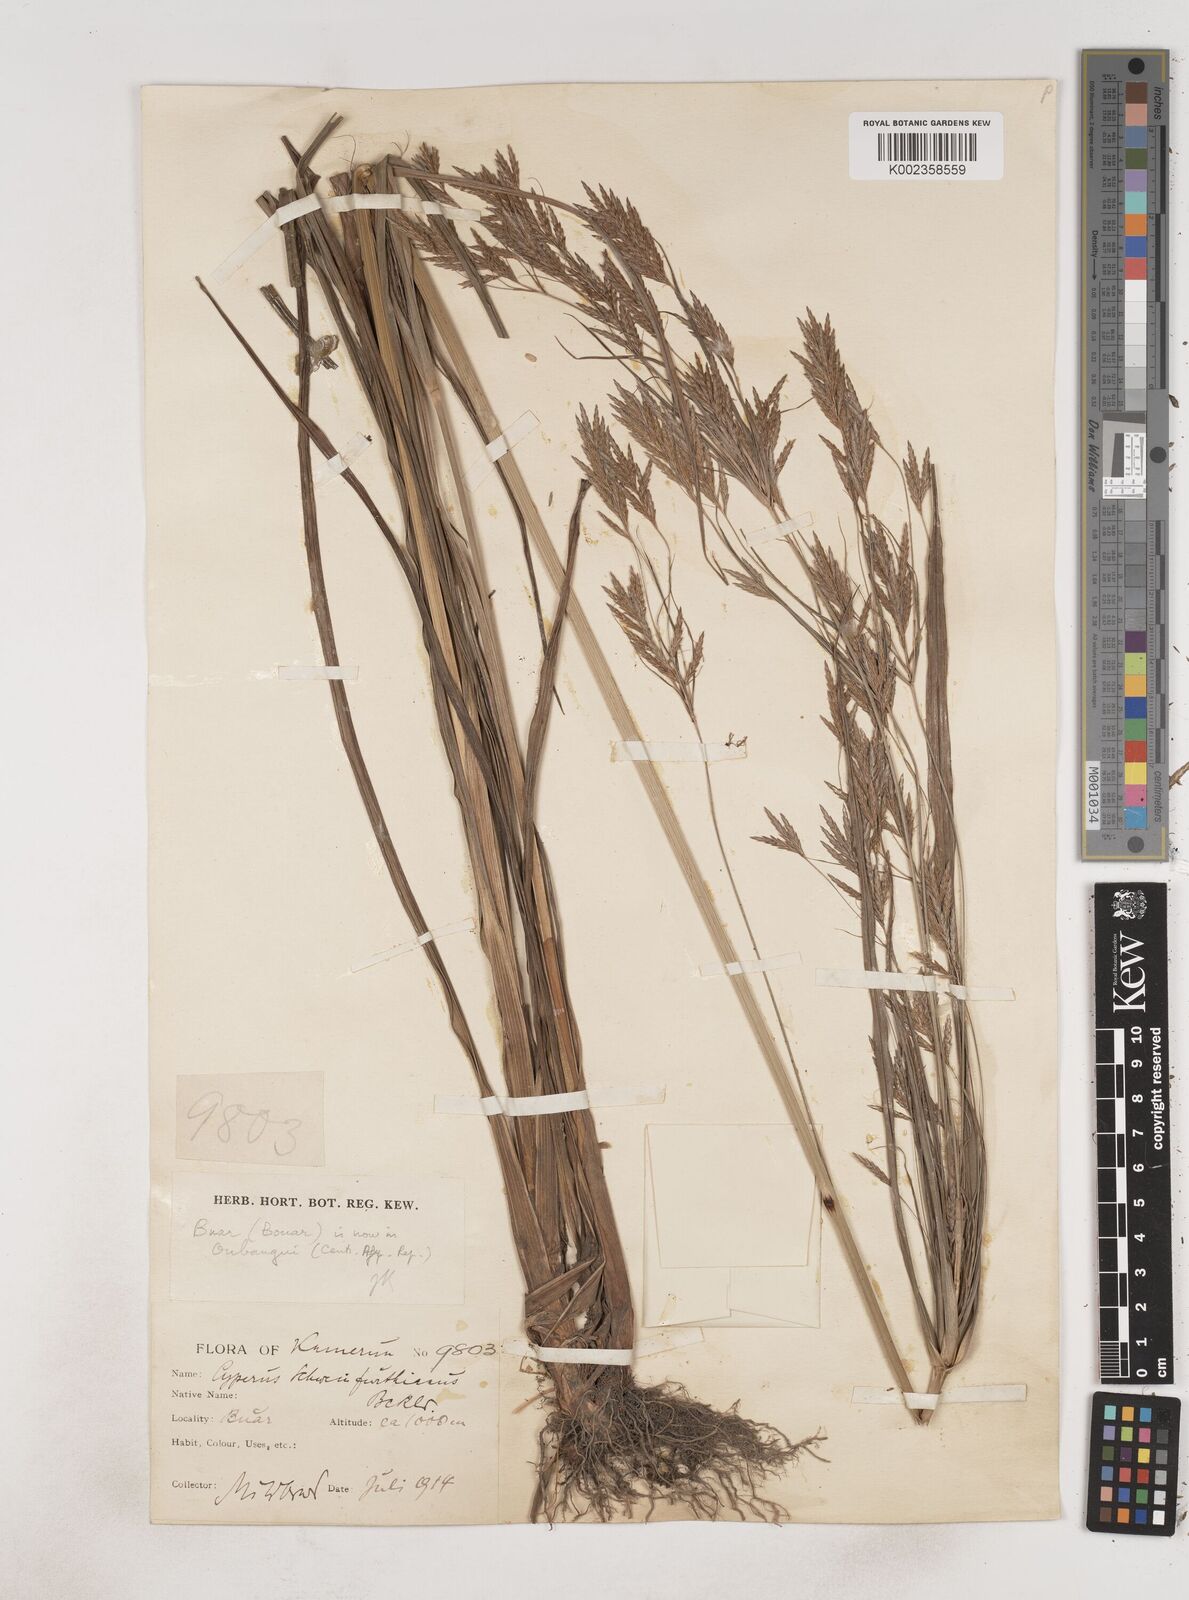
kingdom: Plantae
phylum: Tracheophyta
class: Liliopsida
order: Poales
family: Cyperaceae
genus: Cyperus
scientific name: Cyperus tenuiculmis
